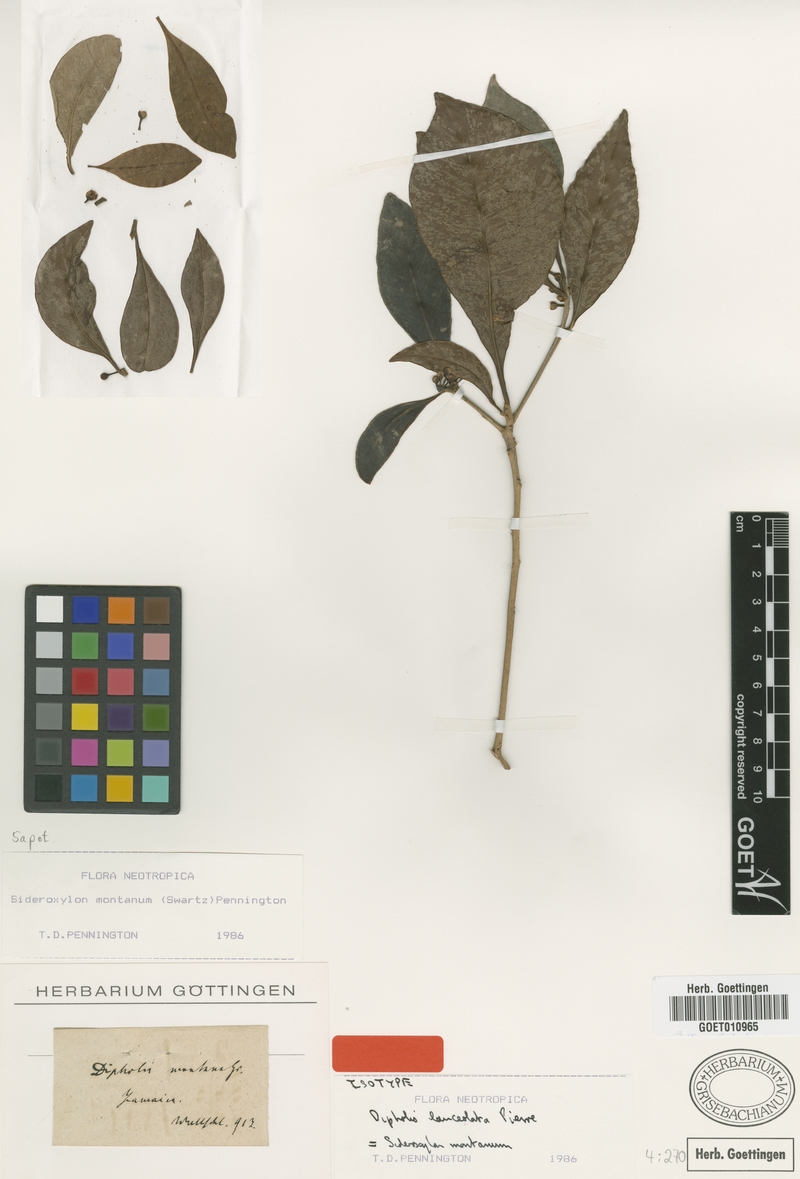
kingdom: Plantae
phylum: Tracheophyta
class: Magnoliopsida
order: Ericales
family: Sapotaceae
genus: Sideroxylon
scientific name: Sideroxylon montanum
